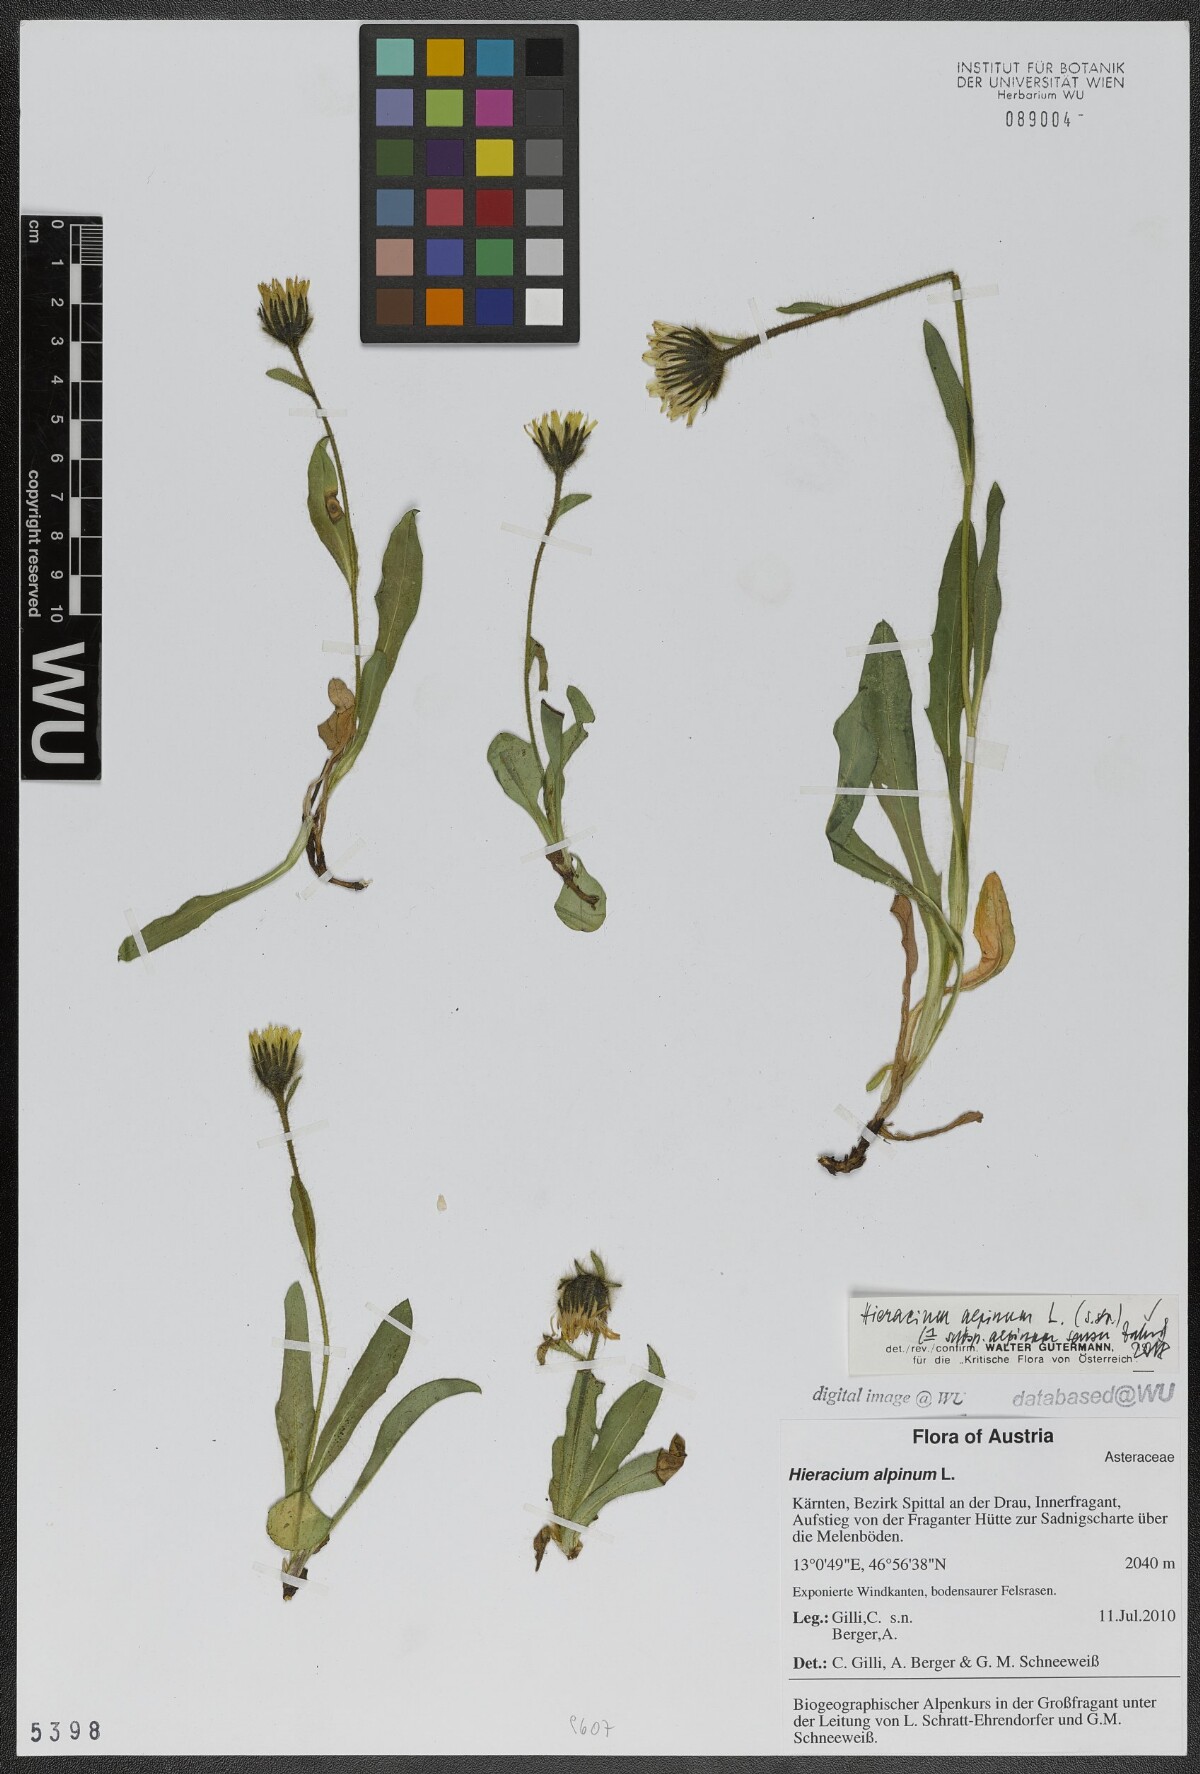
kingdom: Plantae
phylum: Tracheophyta
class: Magnoliopsida
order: Asterales
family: Asteraceae
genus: Hieracium
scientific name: Hieracium alpinum
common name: Alpine hawkweed
